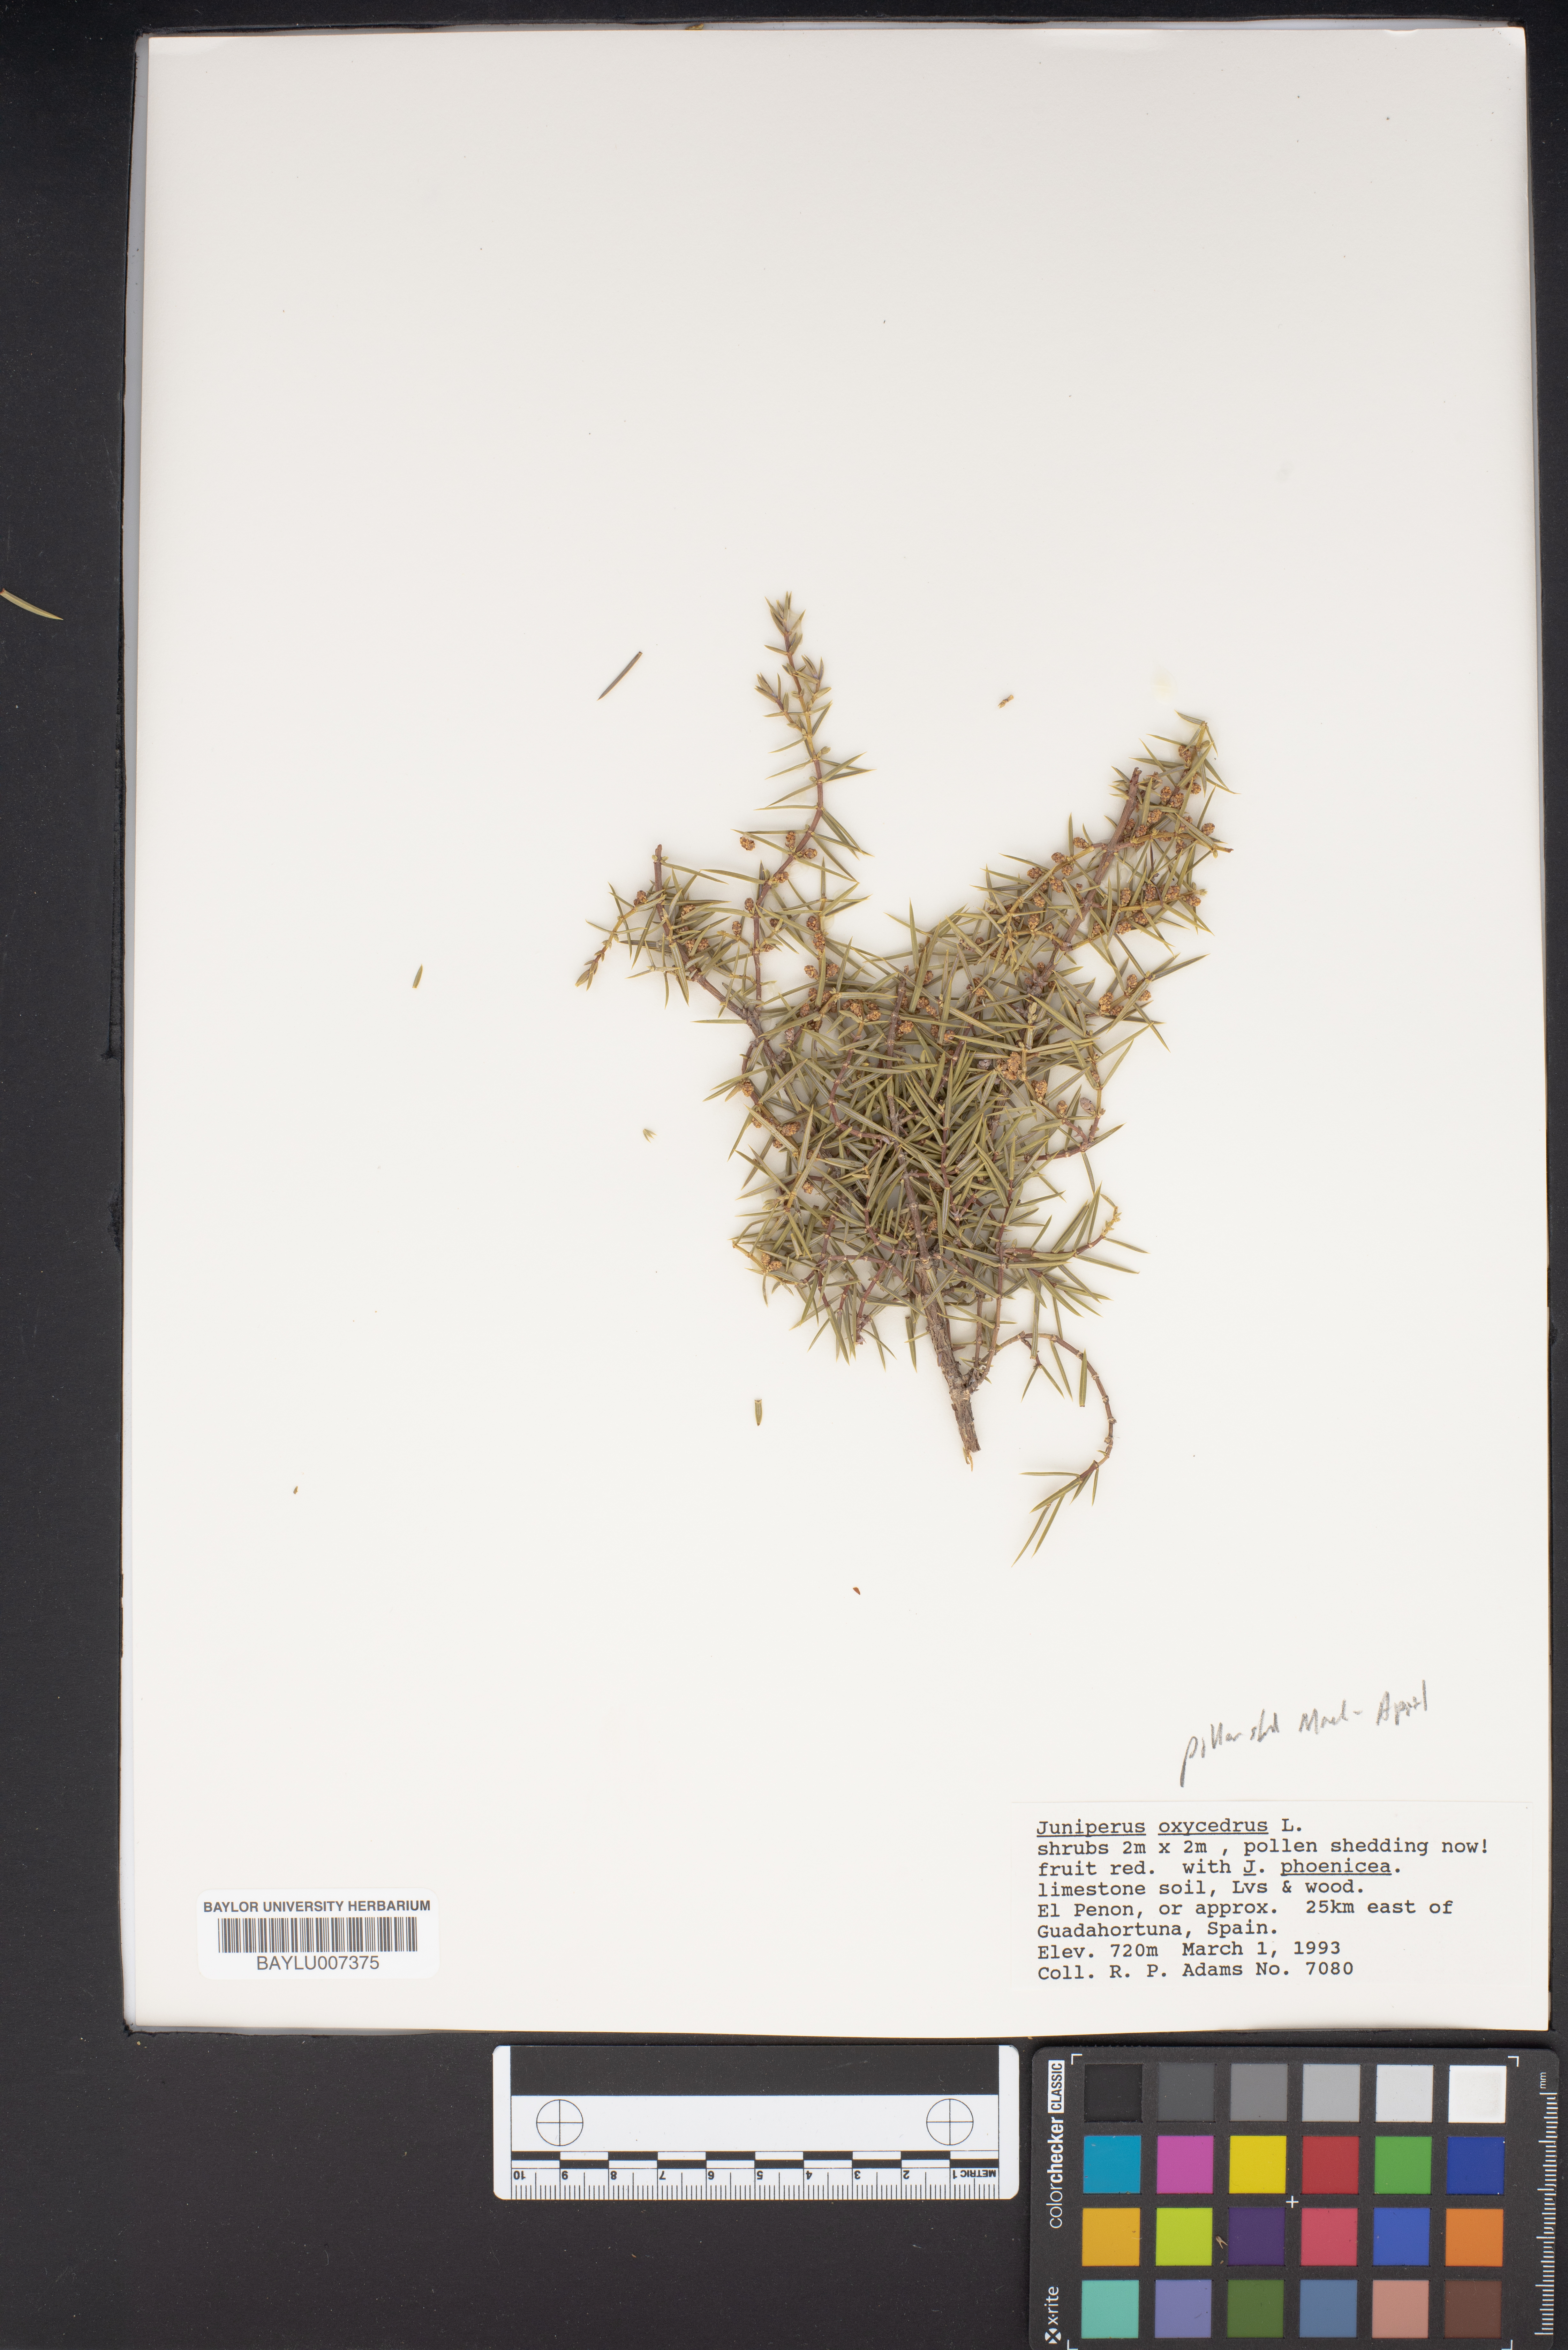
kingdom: Plantae
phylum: Tracheophyta
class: Pinopsida
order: Pinales
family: Cupressaceae
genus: Juniperus
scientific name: Juniperus oxycedrus
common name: Prickly juniper
